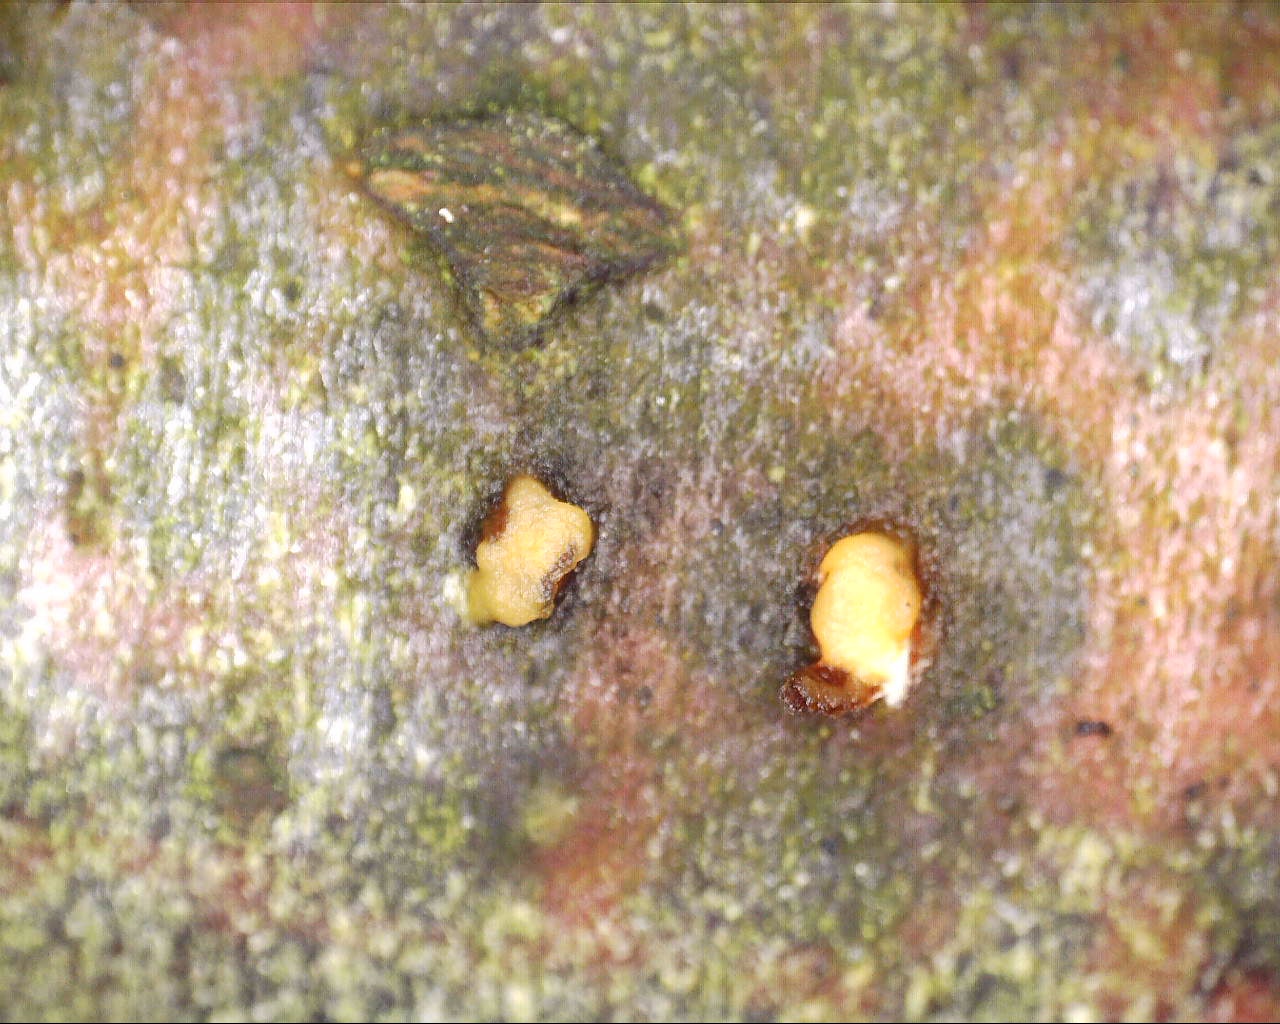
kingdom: Fungi
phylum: Ascomycota
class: Sordariomycetes
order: Xylariales
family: Xylariaceae
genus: Digitodochium
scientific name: Digitodochium rhodoleucum
